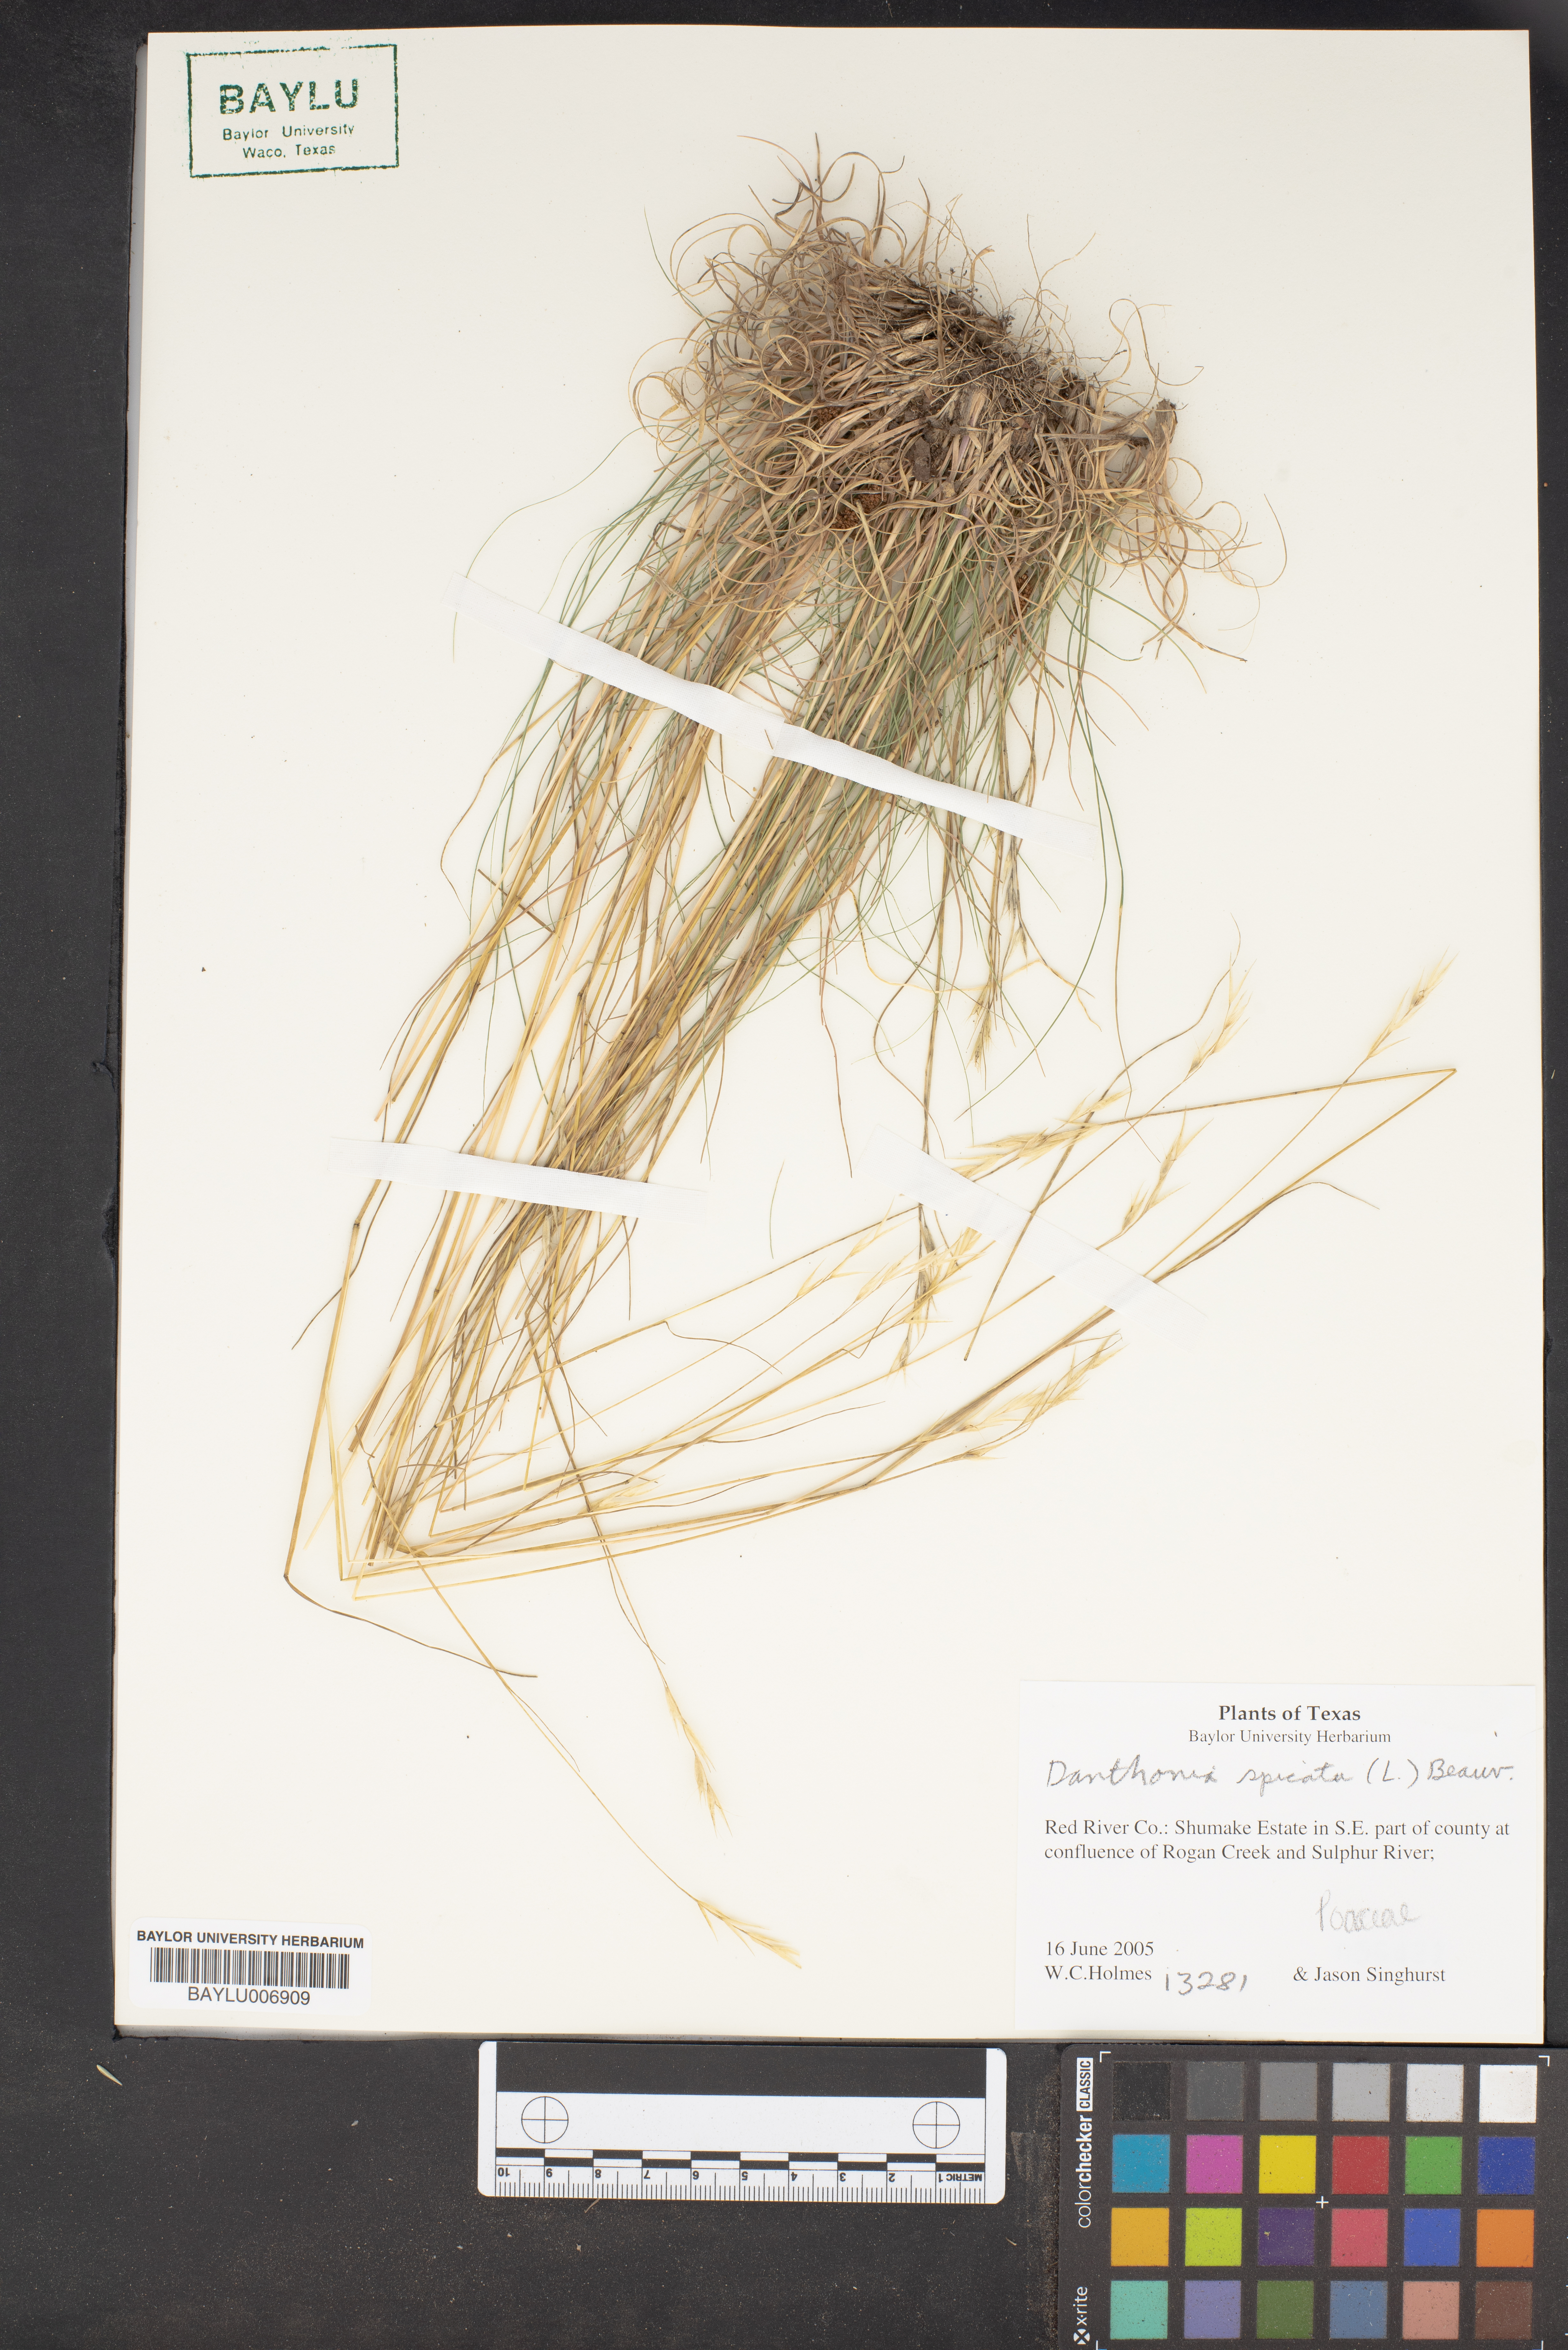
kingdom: Plantae
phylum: Tracheophyta
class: Liliopsida
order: Poales
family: Poaceae
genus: Danthonia
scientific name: Danthonia spicata
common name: Common wild oatgrass
